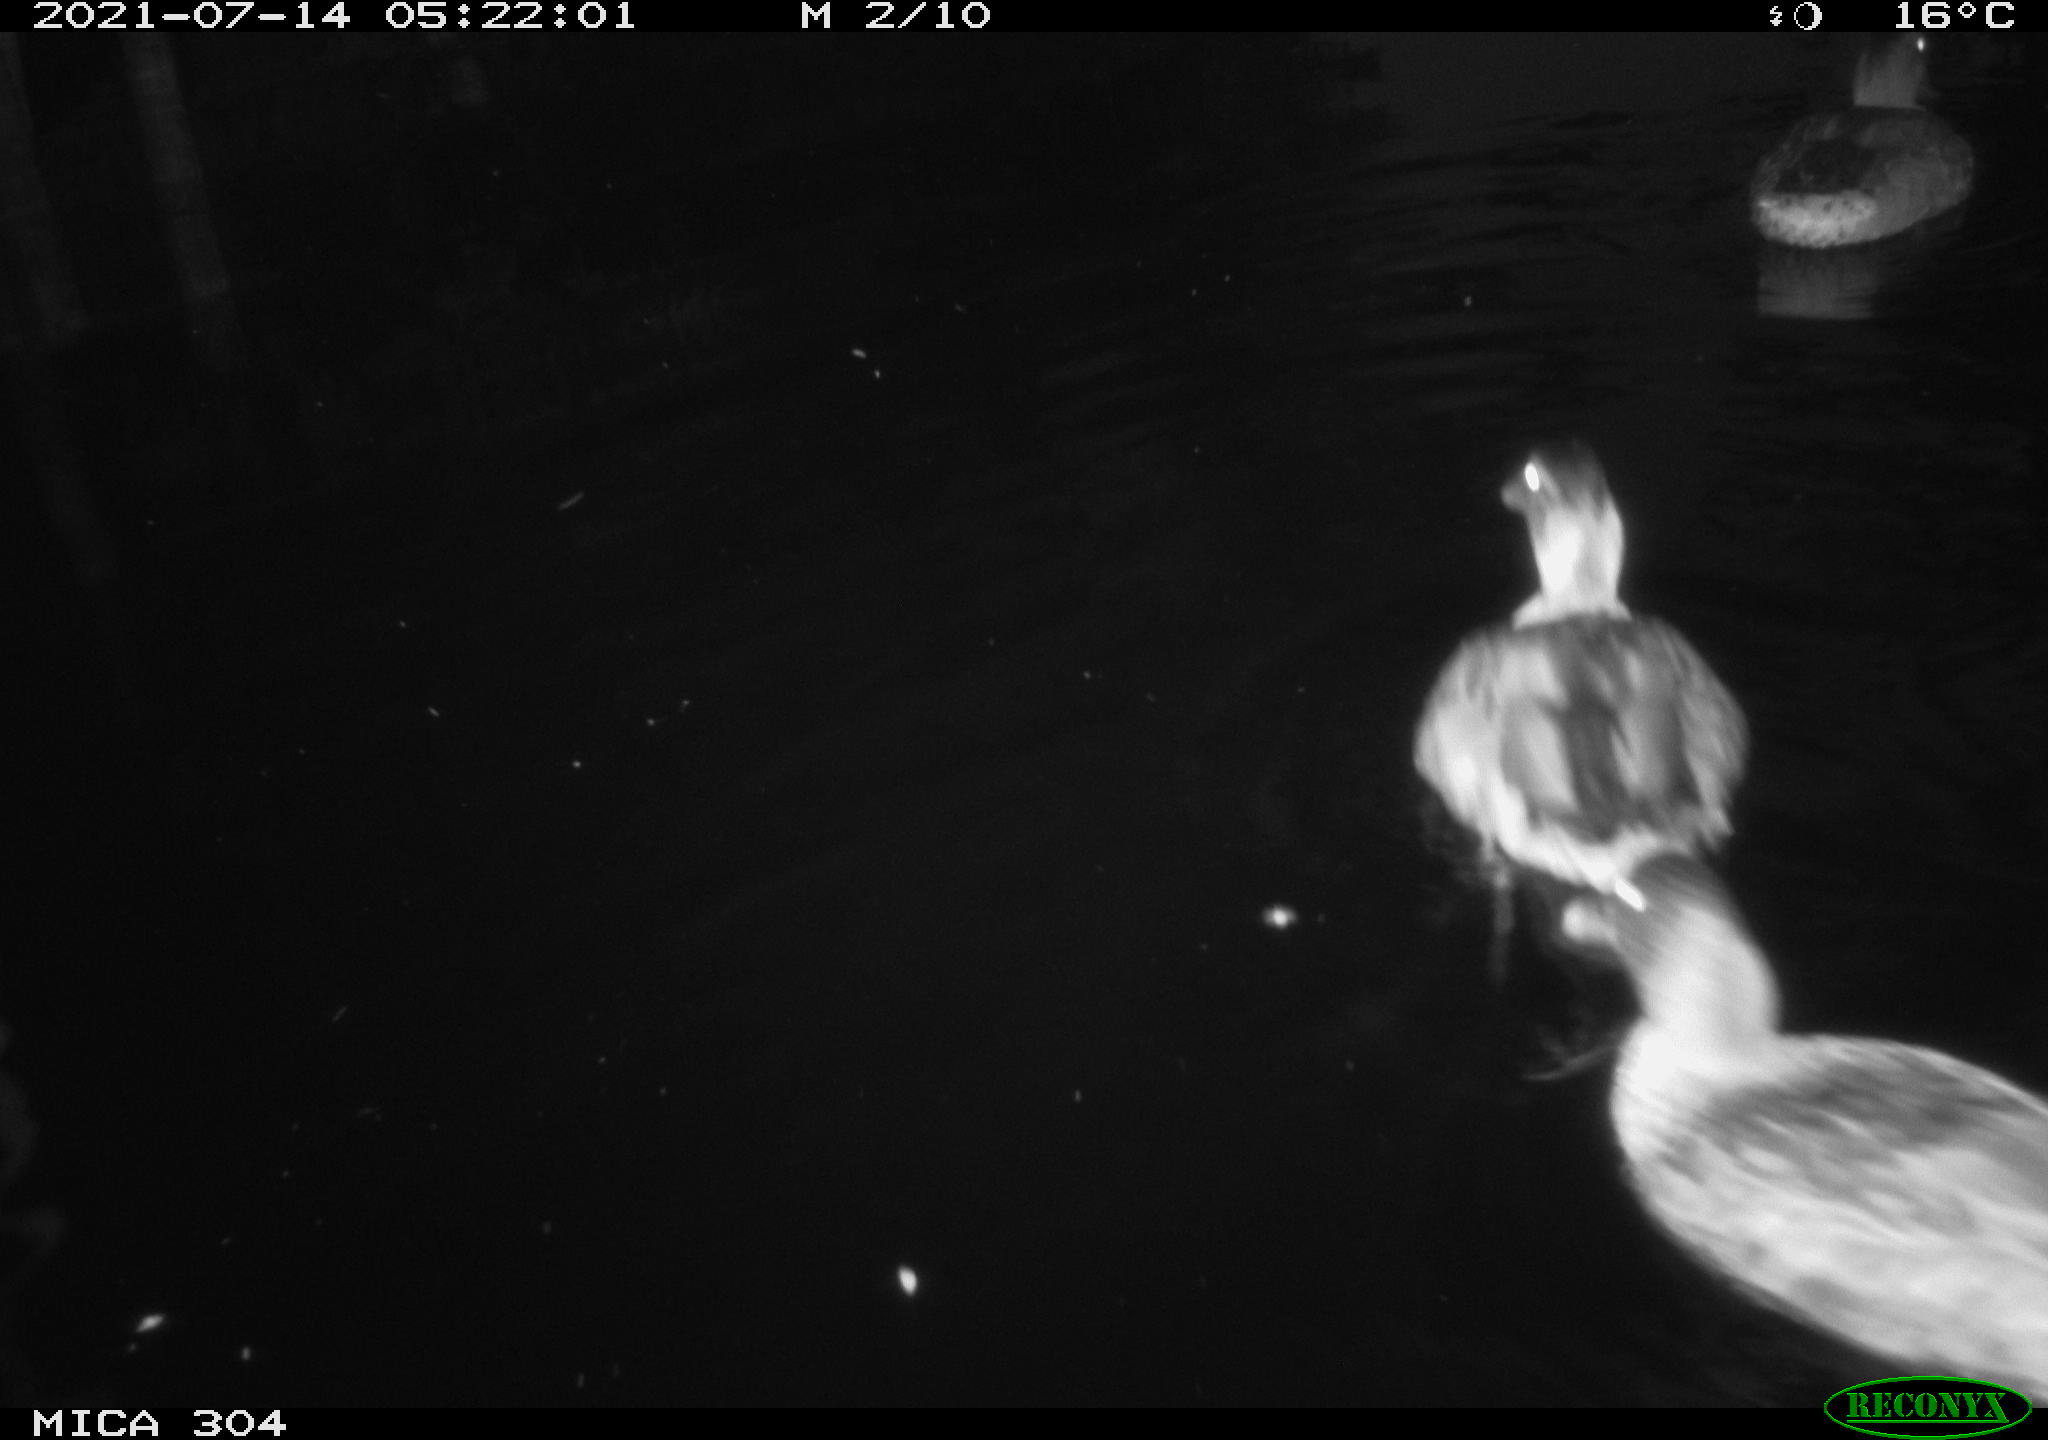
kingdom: Animalia
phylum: Chordata
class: Aves
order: Anseriformes
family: Anatidae
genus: Anas
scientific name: Anas platyrhynchos
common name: Mallard
